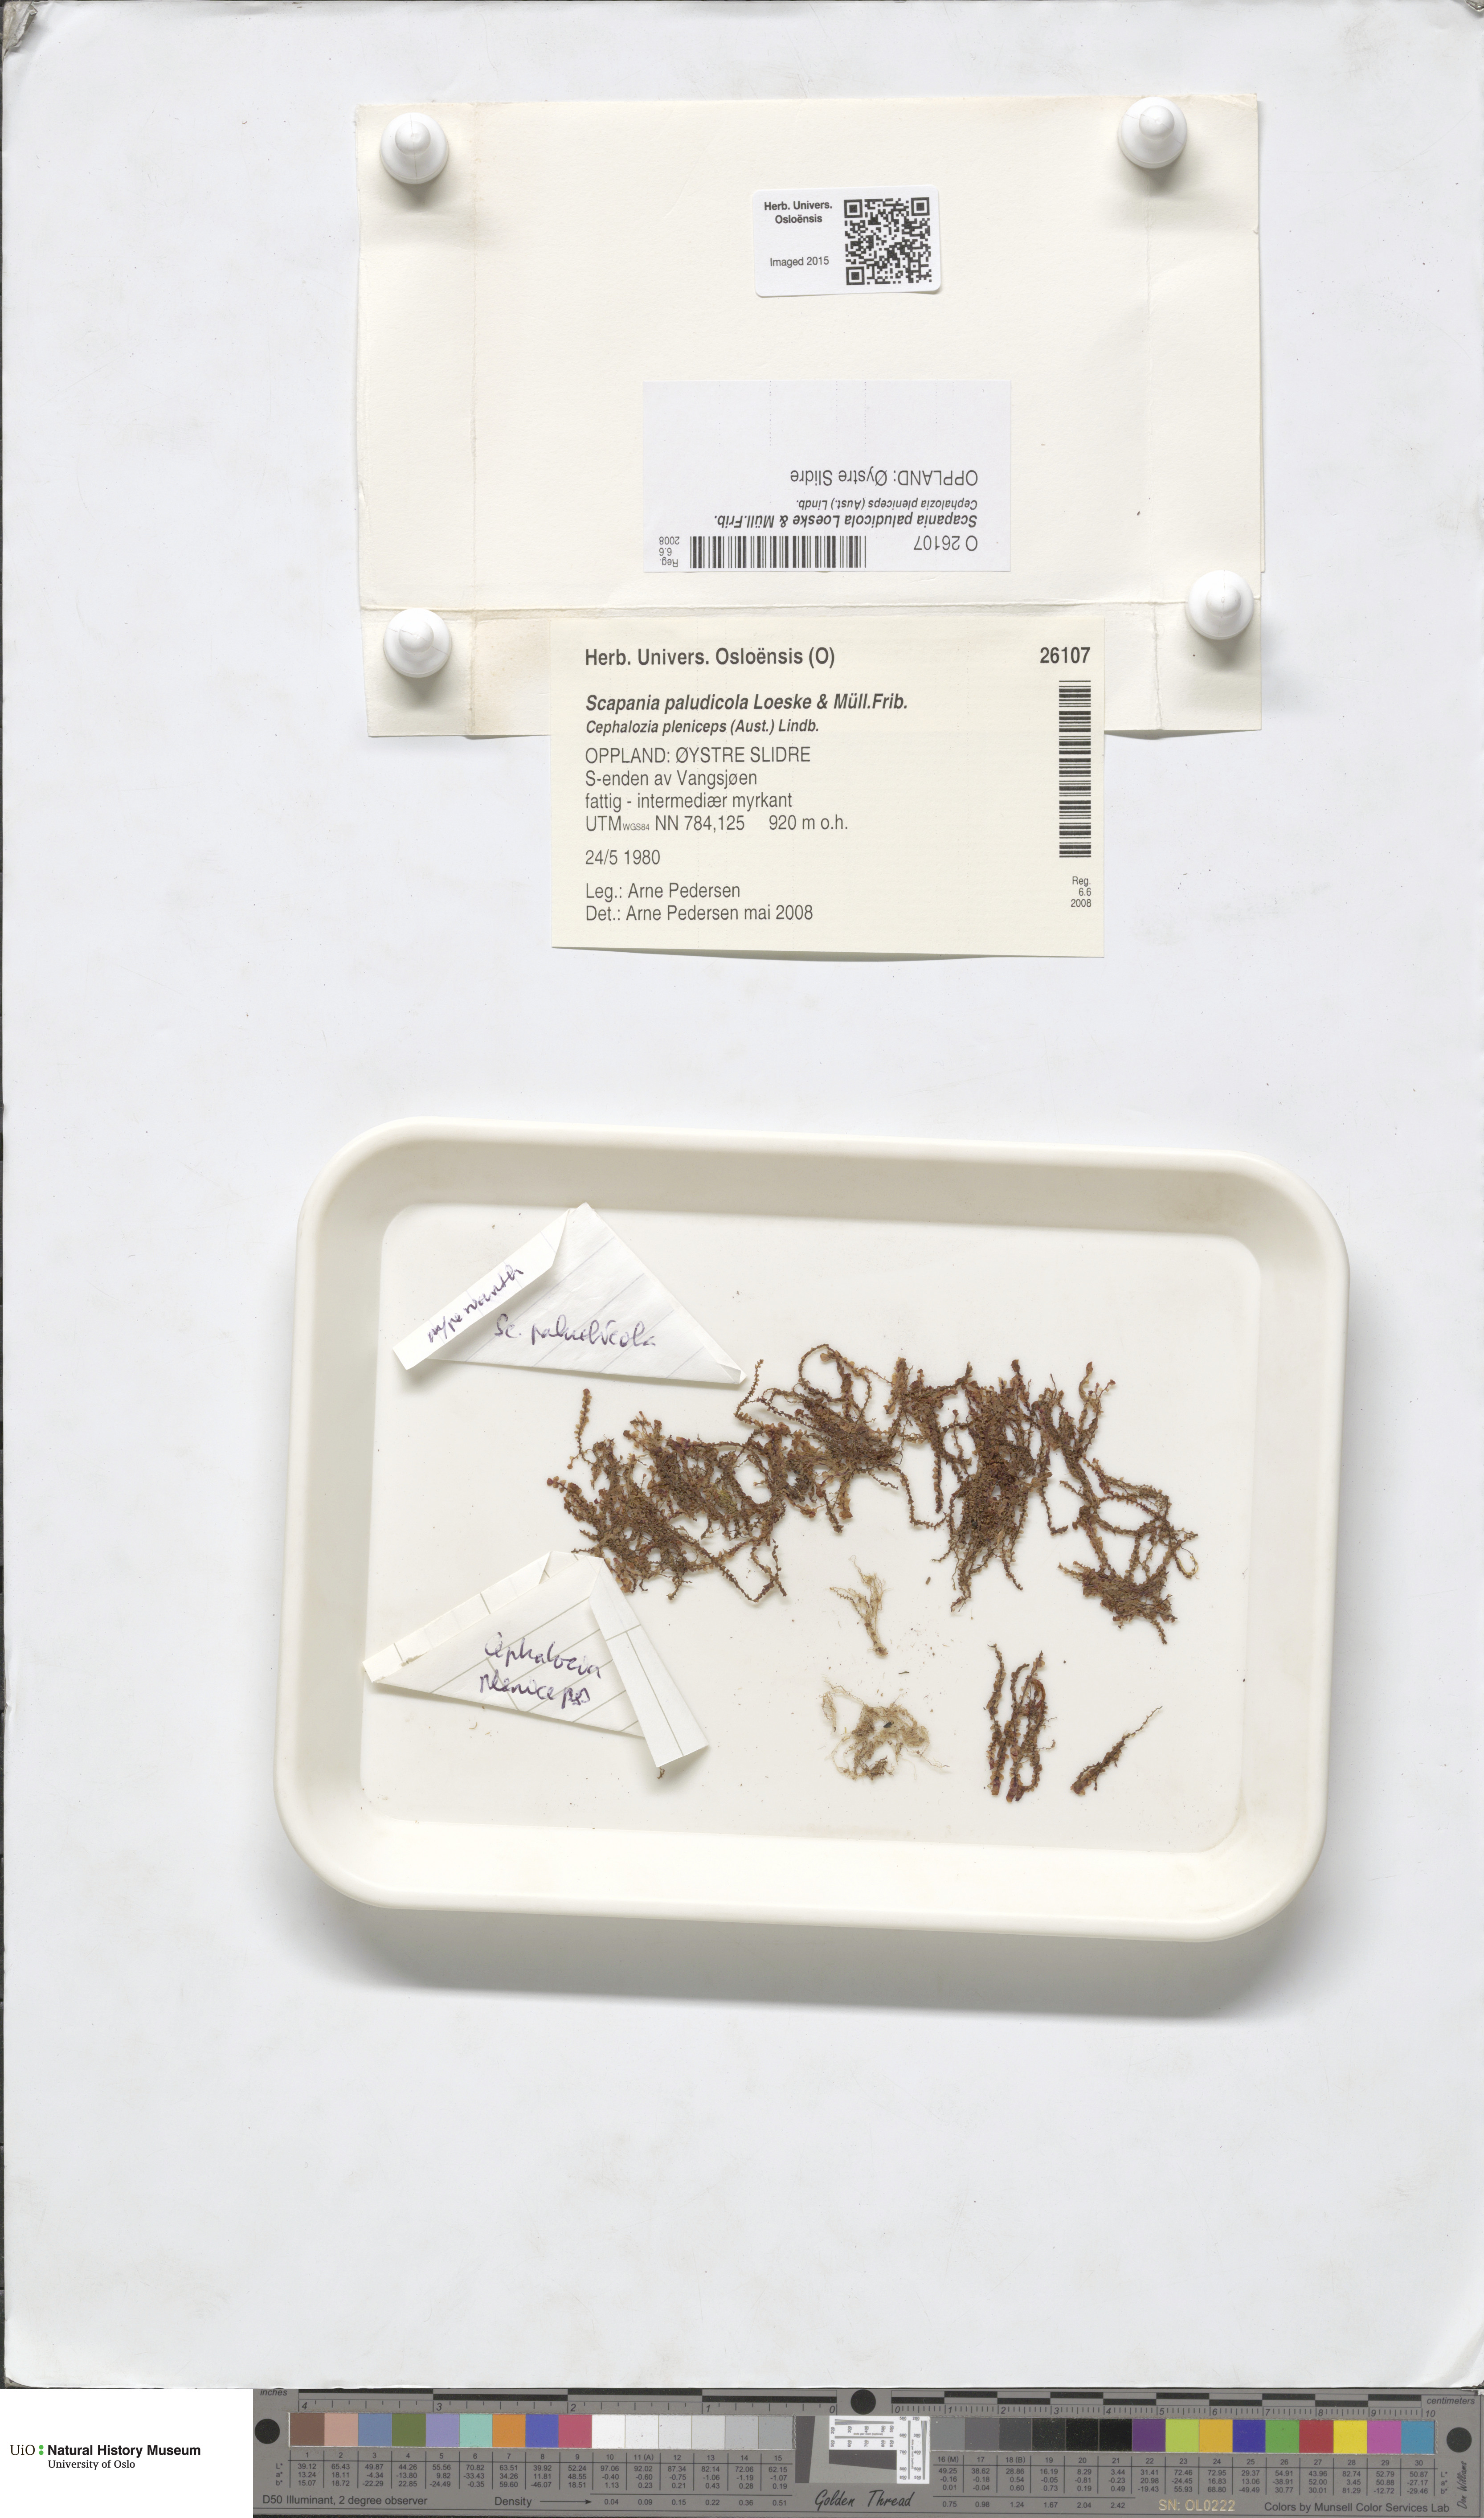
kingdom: Plantae
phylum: Marchantiophyta
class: Jungermanniopsida
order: Jungermanniales
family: Scapaniaceae
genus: Scapania
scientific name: Scapania paludicola
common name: Bog earwort
